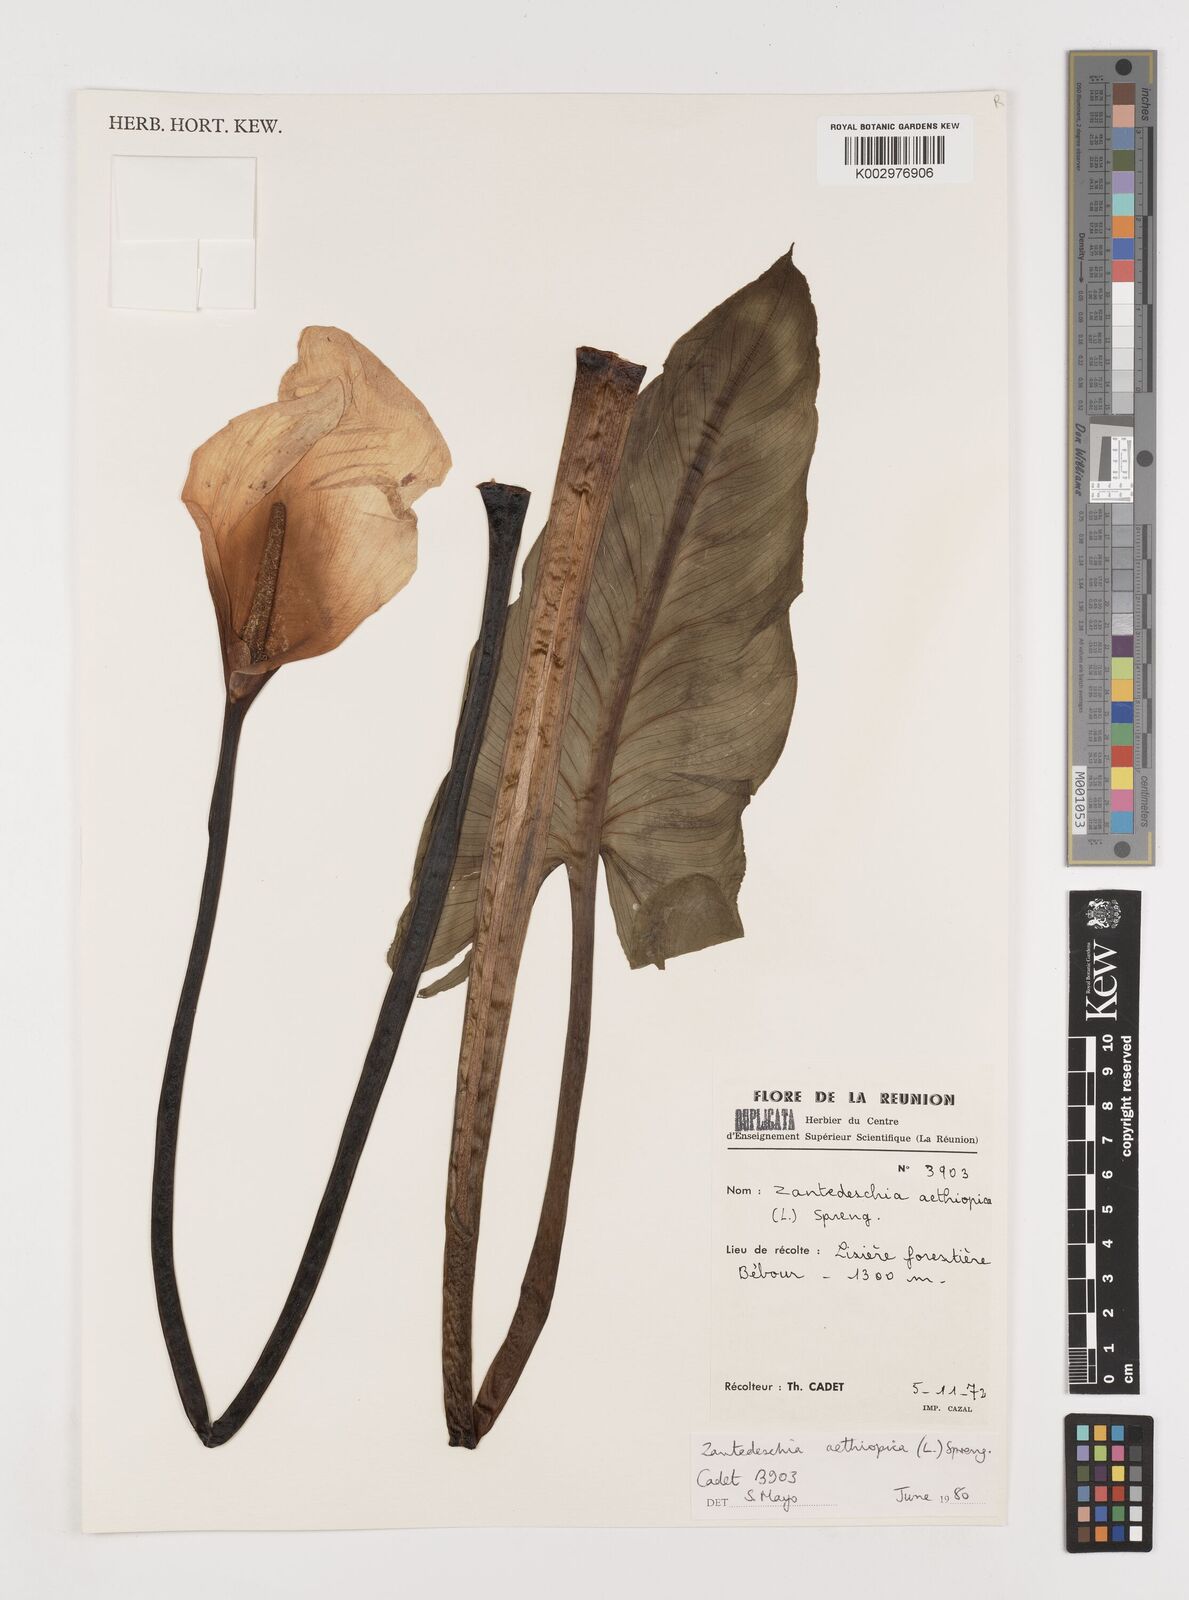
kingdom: Plantae
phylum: Tracheophyta
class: Liliopsida
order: Alismatales
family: Araceae
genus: Zantedeschia
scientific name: Zantedeschia aethiopica
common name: Altar-lily
